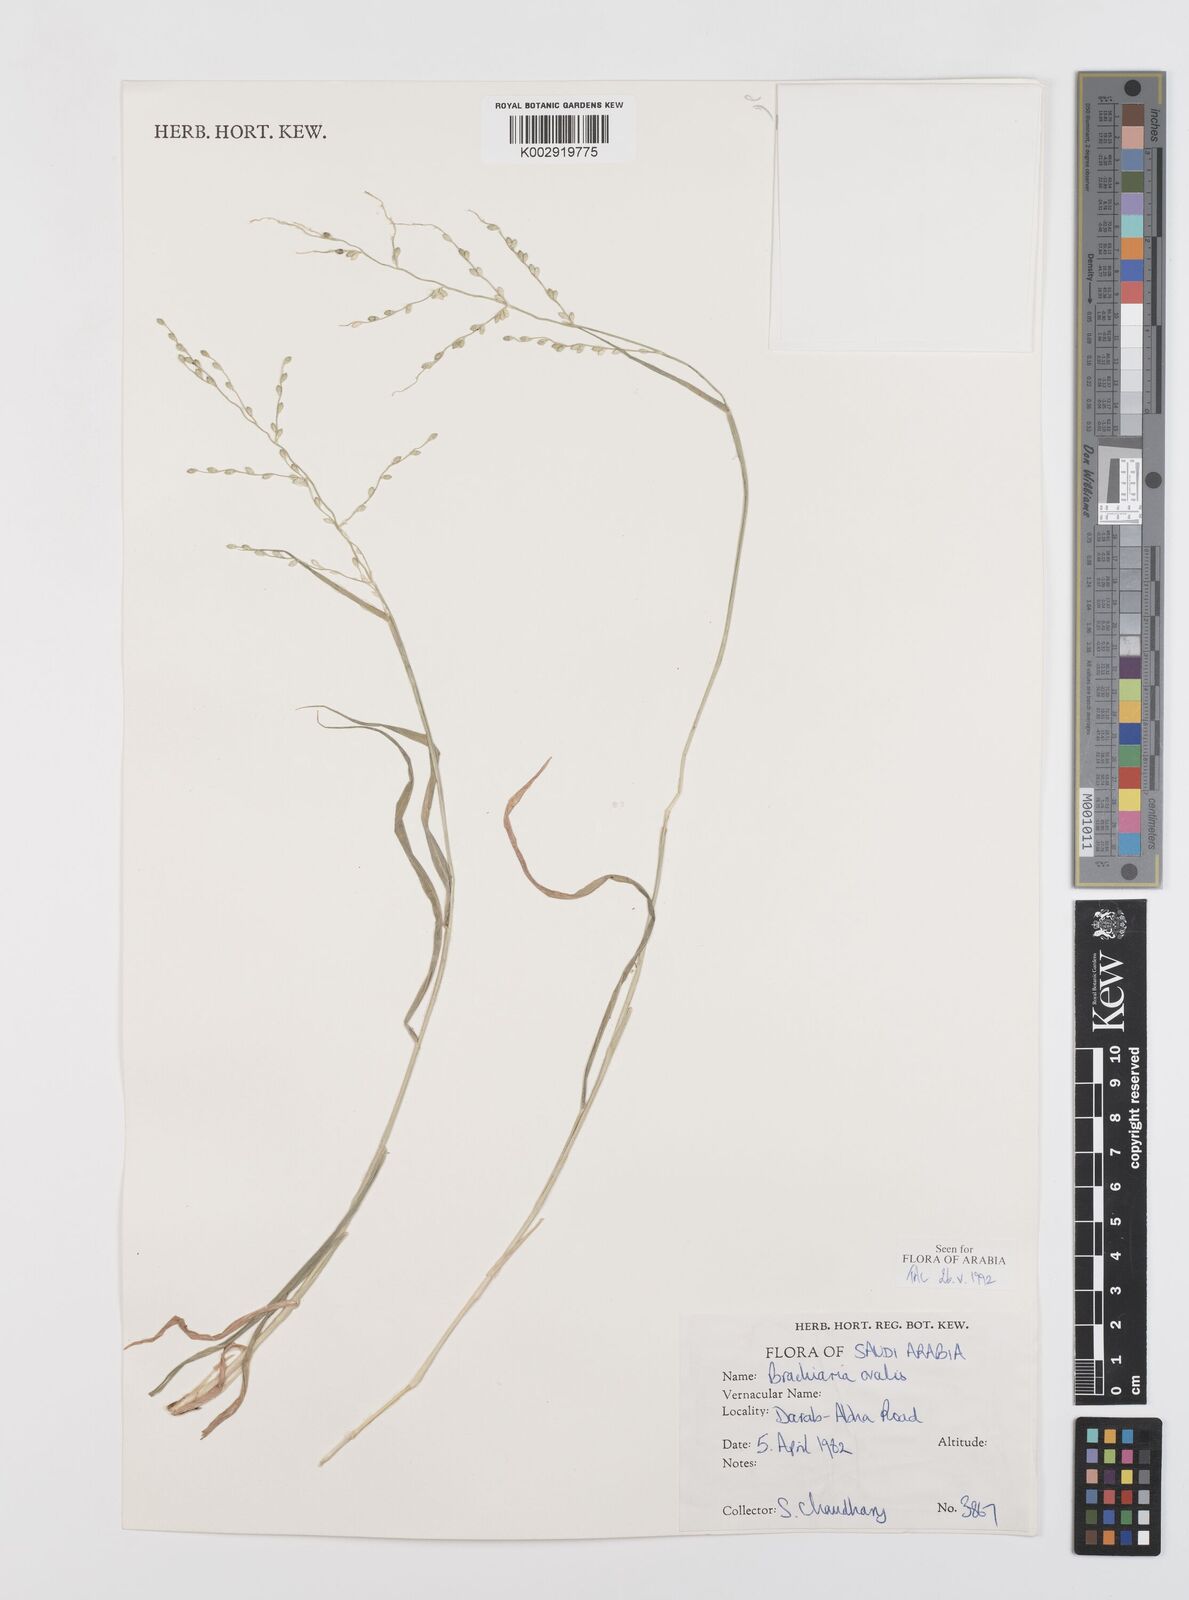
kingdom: Plantae
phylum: Tracheophyta
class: Liliopsida
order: Poales
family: Poaceae
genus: Urochloa
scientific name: Urochloa ovalis
